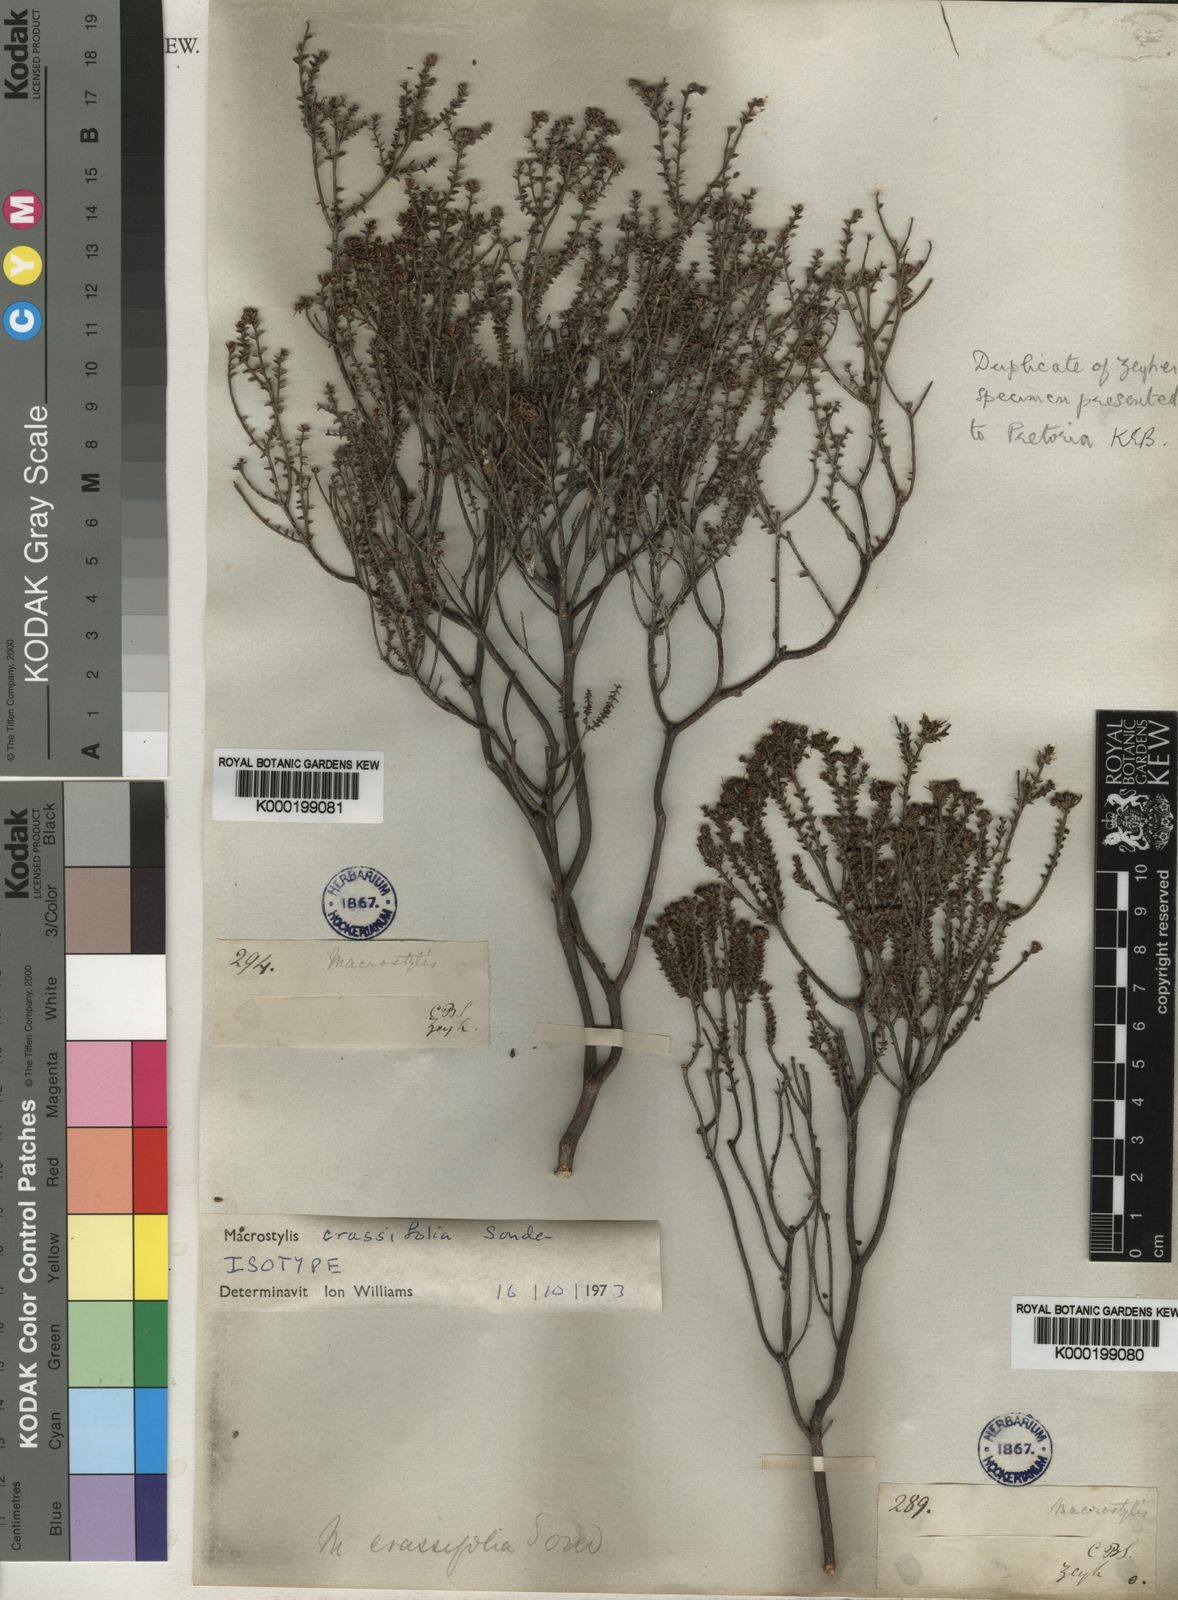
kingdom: Plantae
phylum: Tracheophyta
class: Magnoliopsida
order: Sapindales
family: Rutaceae
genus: Macrostylis
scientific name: Macrostylis crassifolia
